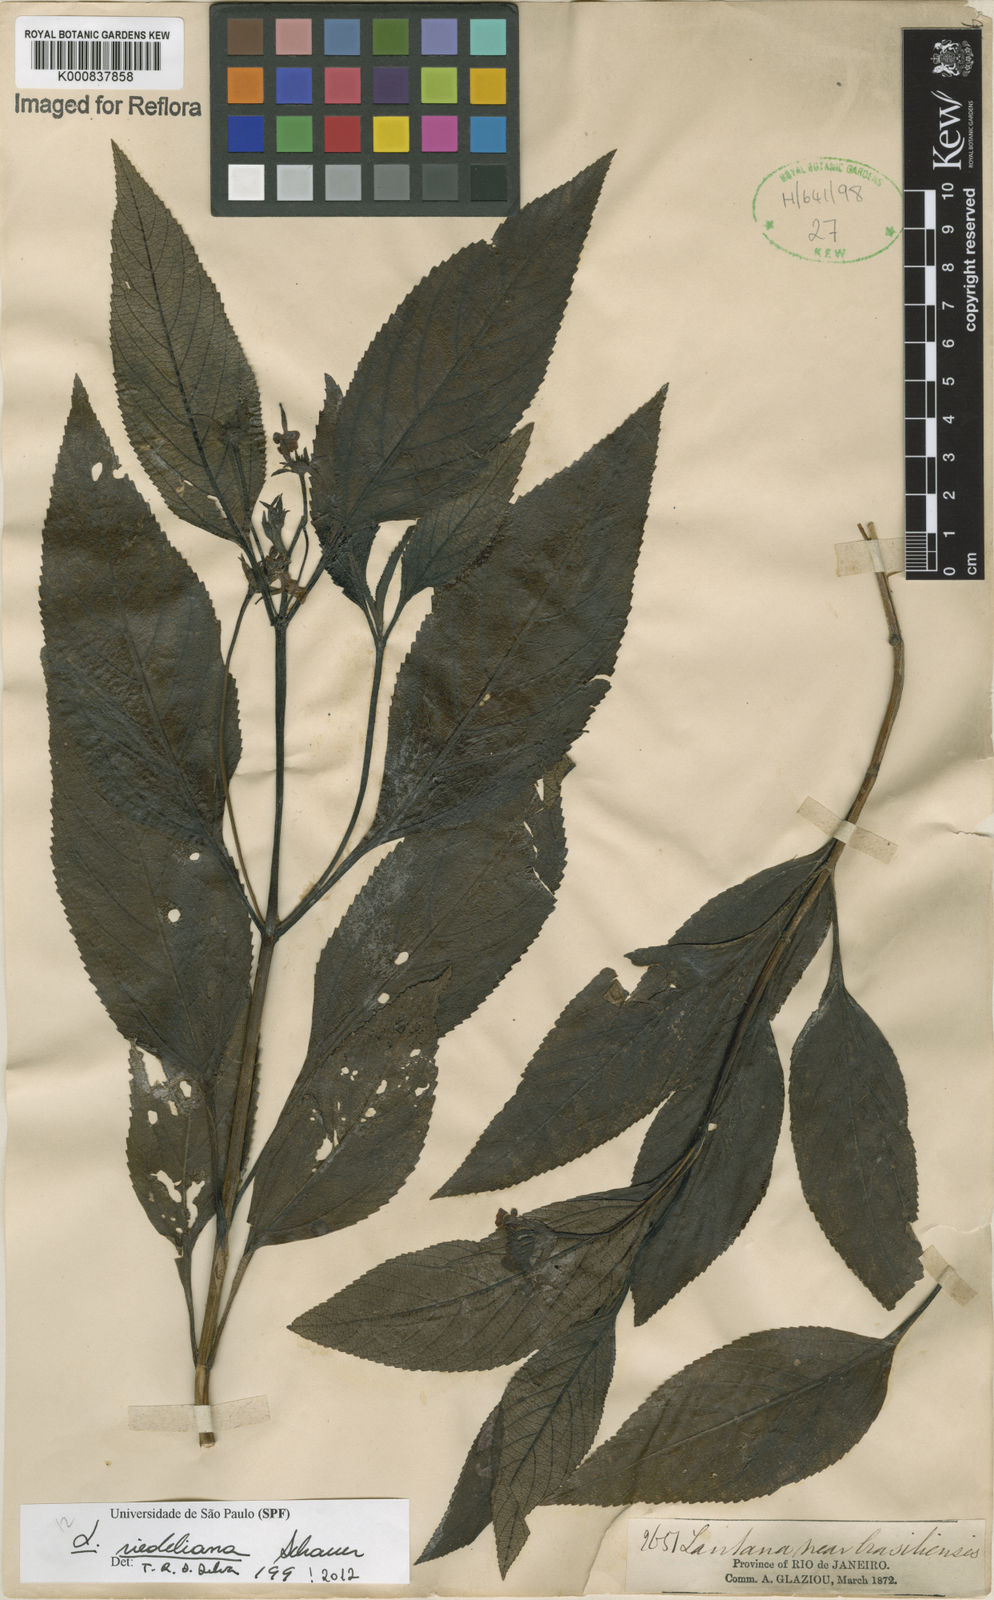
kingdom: Plantae
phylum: Tracheophyta
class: Magnoliopsida
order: Lamiales
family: Verbenaceae
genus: Lantana
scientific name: Lantana cujabensis
